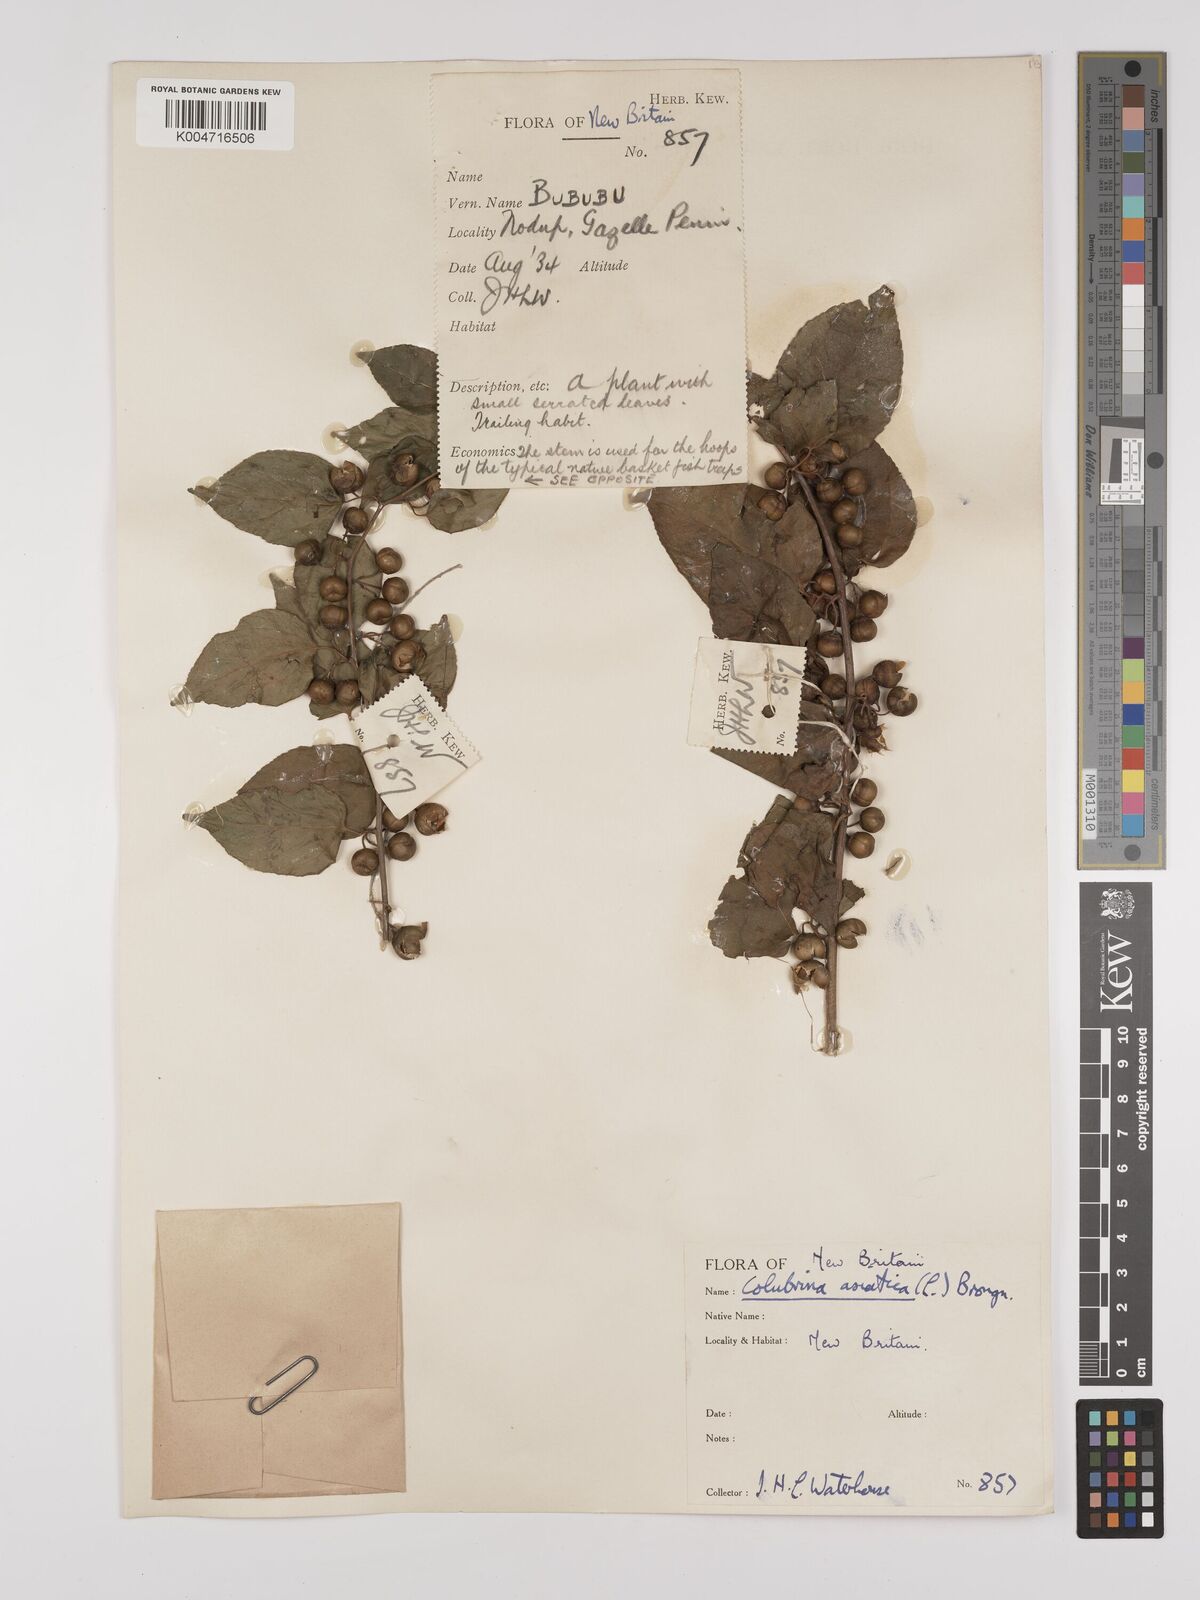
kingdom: Plantae
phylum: Tracheophyta
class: Magnoliopsida
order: Rosales
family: Rhamnaceae
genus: Colubrina
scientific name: Colubrina asiatica
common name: Asian nakedwood
